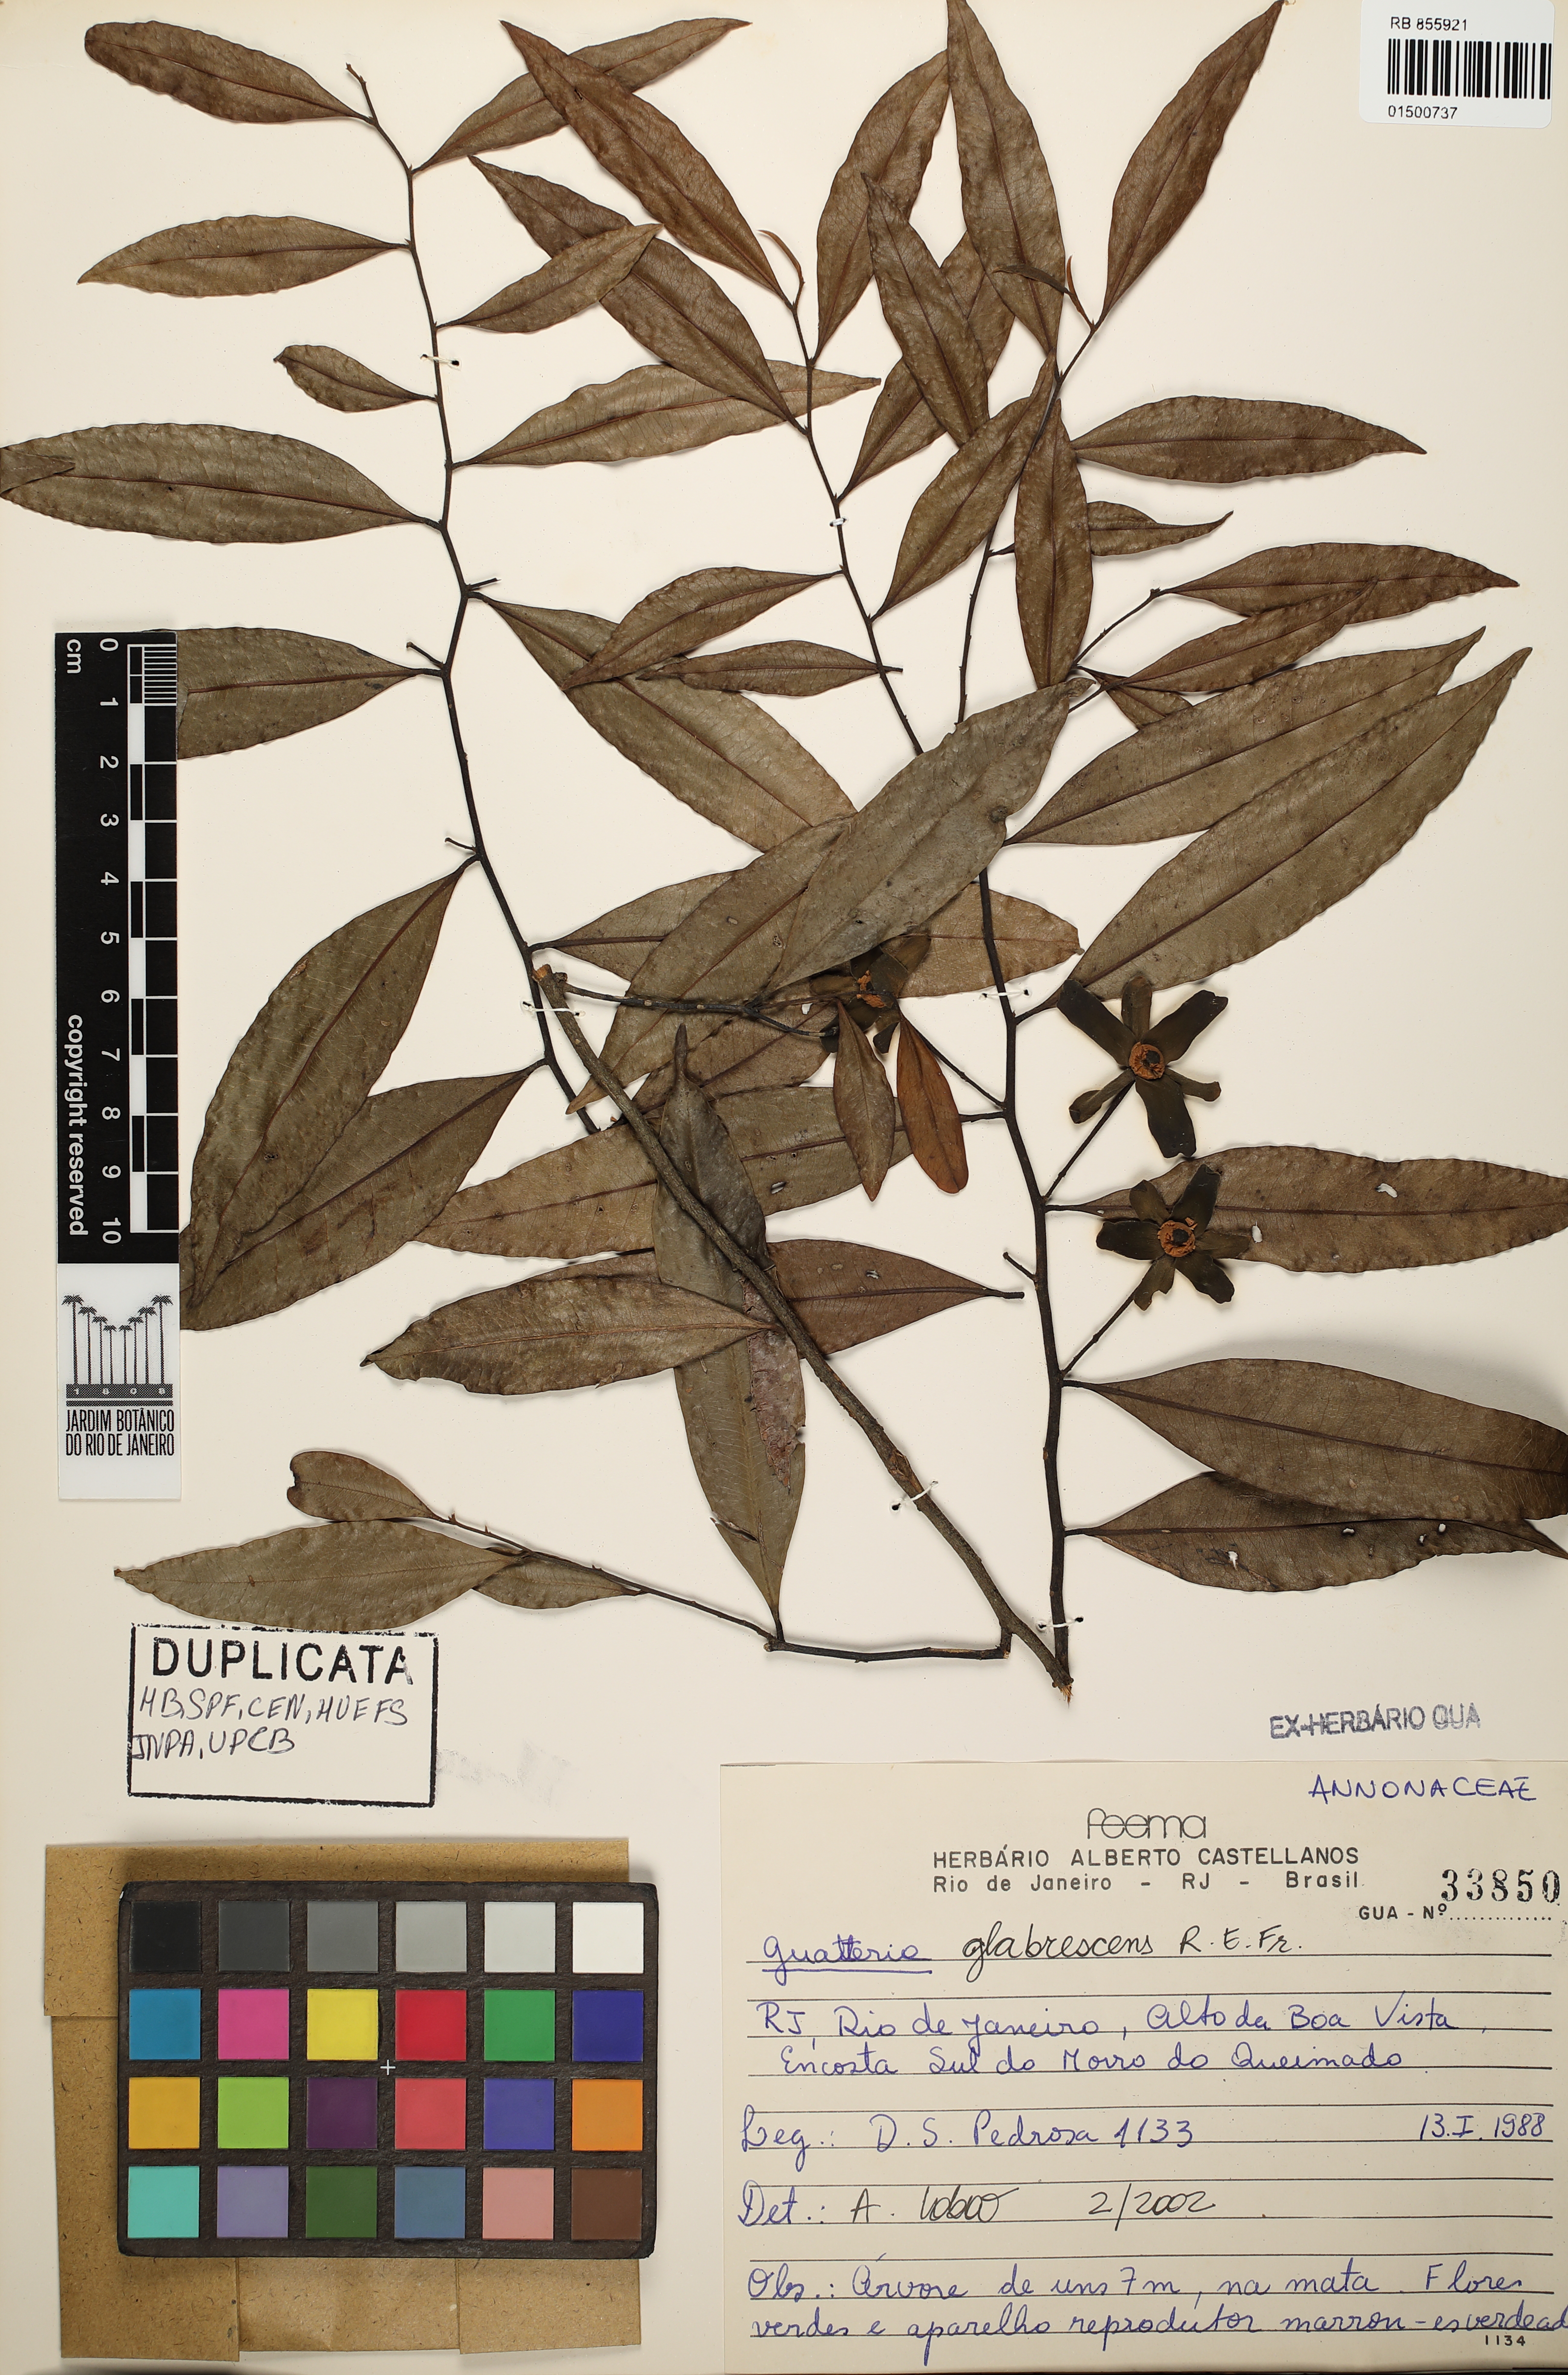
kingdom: Plantae
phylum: Tracheophyta
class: Magnoliopsida
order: Magnoliales
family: Annonaceae
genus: Guatteria
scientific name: Guatteria australis
